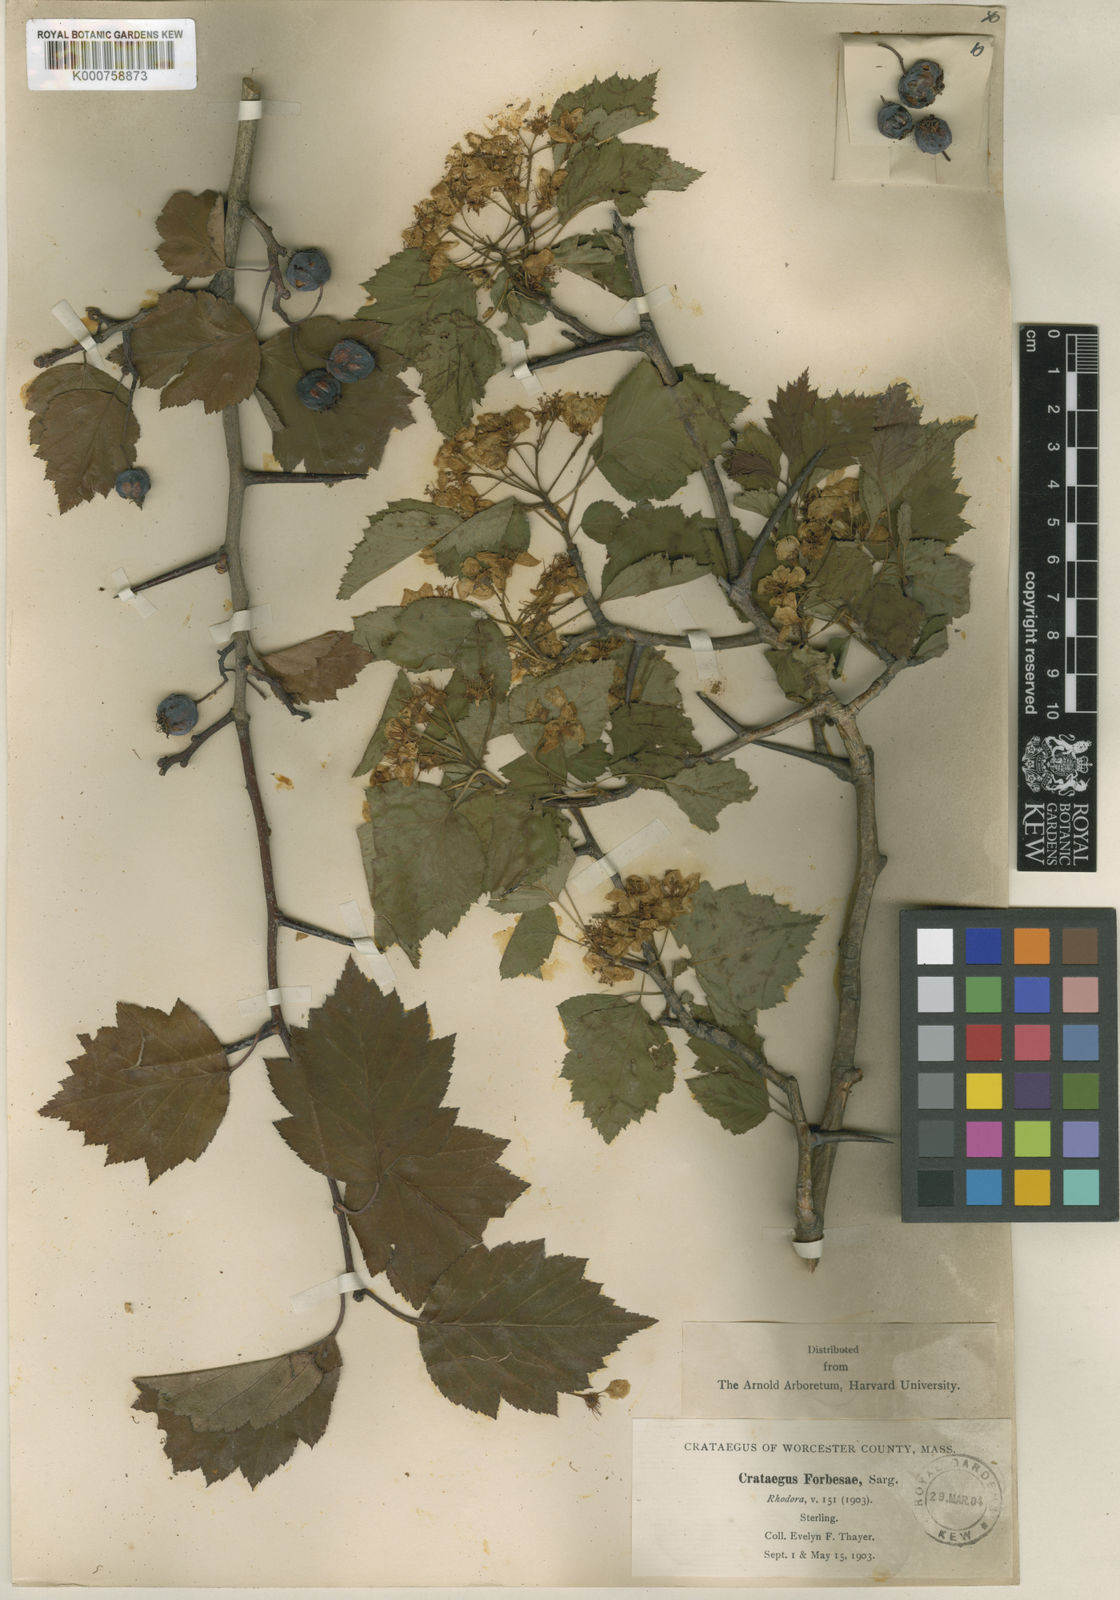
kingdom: Plantae
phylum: Tracheophyta
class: Magnoliopsida
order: Rosales
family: Rosaceae
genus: Crataegus
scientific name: Crataegus
